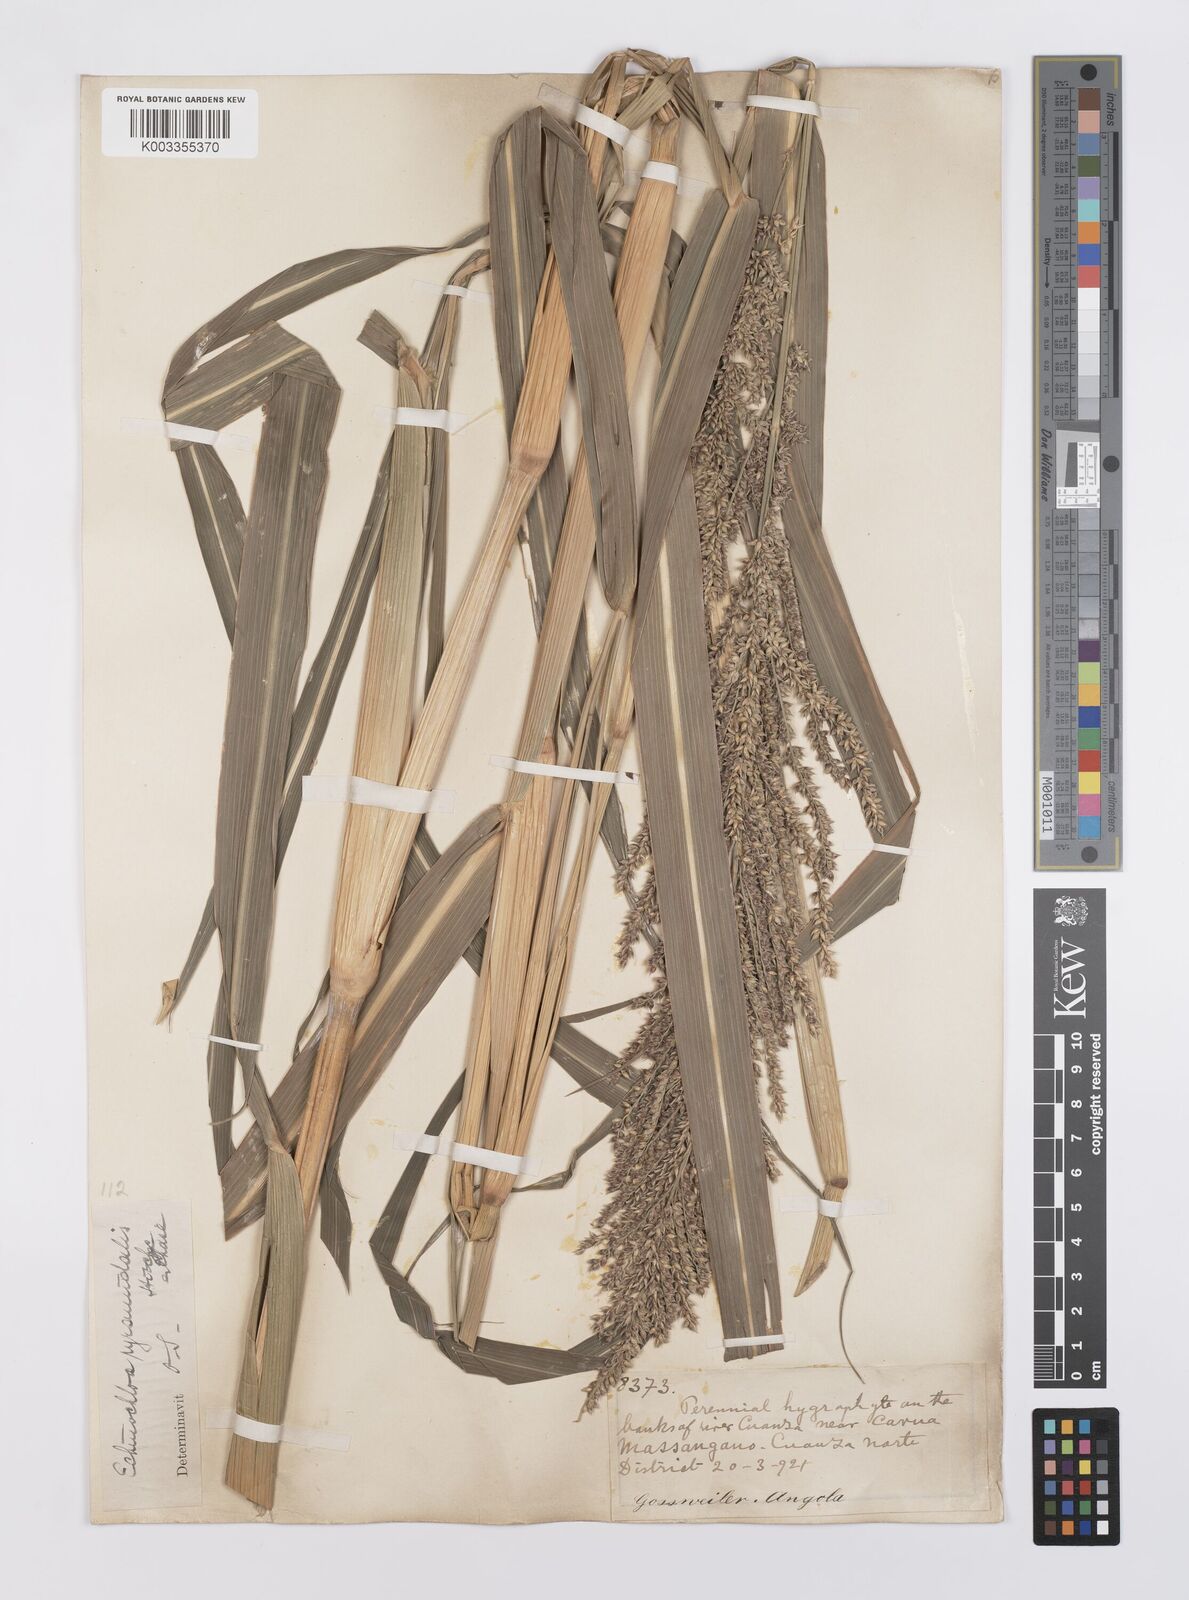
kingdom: Plantae
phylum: Tracheophyta
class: Liliopsida
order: Poales
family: Poaceae
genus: Echinochloa
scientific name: Echinochloa pyramidalis
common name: Antelope grass
